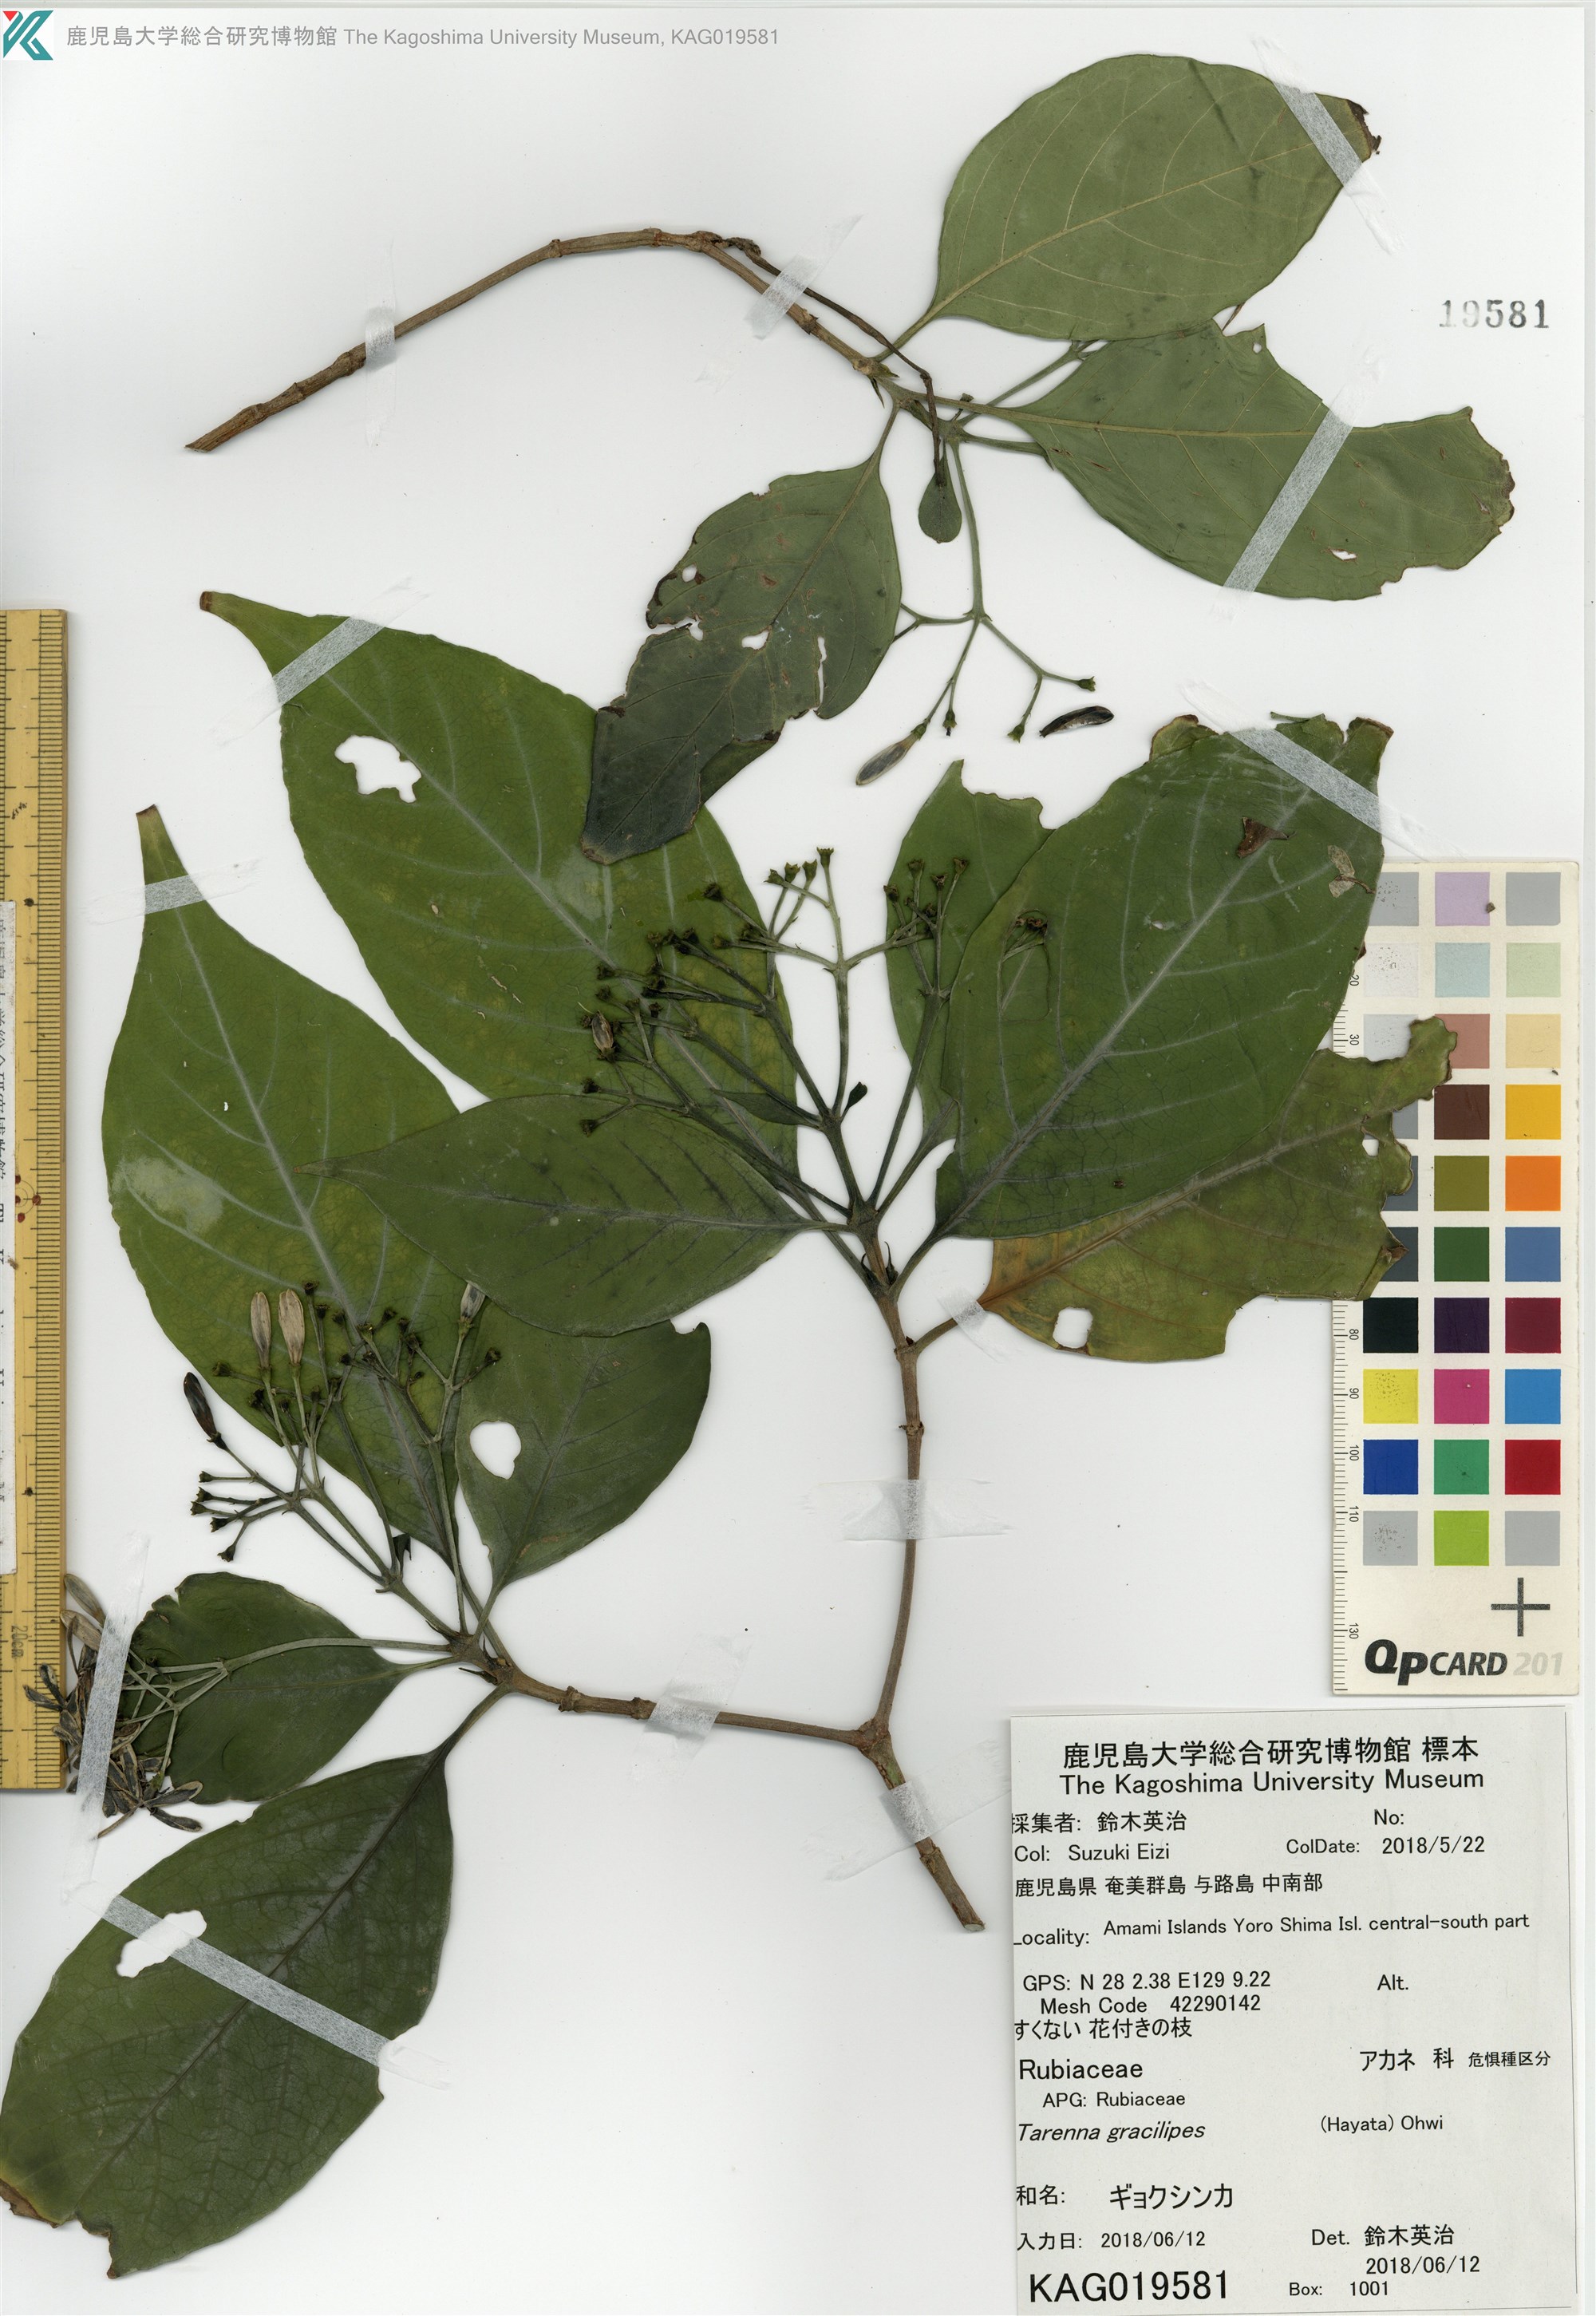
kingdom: Plantae
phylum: Tracheophyta
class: Magnoliopsida
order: Gentianales
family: Rubiaceae
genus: Tarenna
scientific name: Tarenna asiatica
